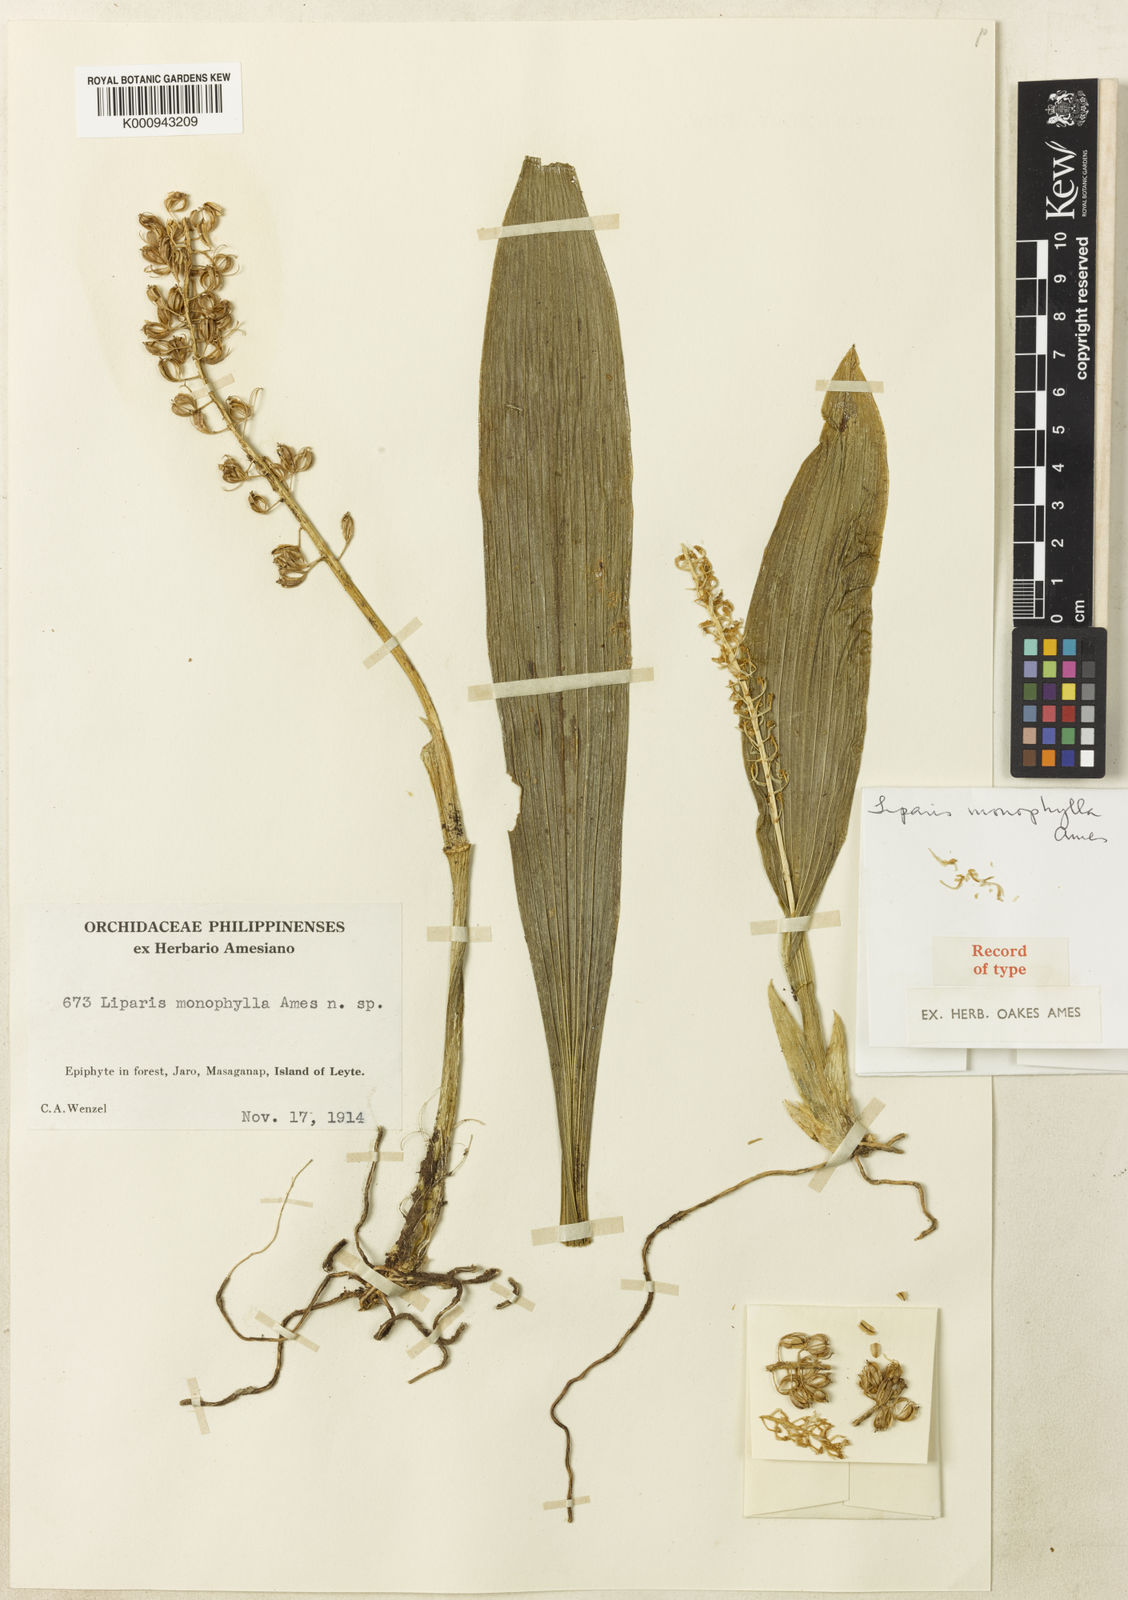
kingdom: Plantae
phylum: Tracheophyta
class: Liliopsida
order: Asparagales
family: Orchidaceae
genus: Liparis
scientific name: Liparis carnicolor
